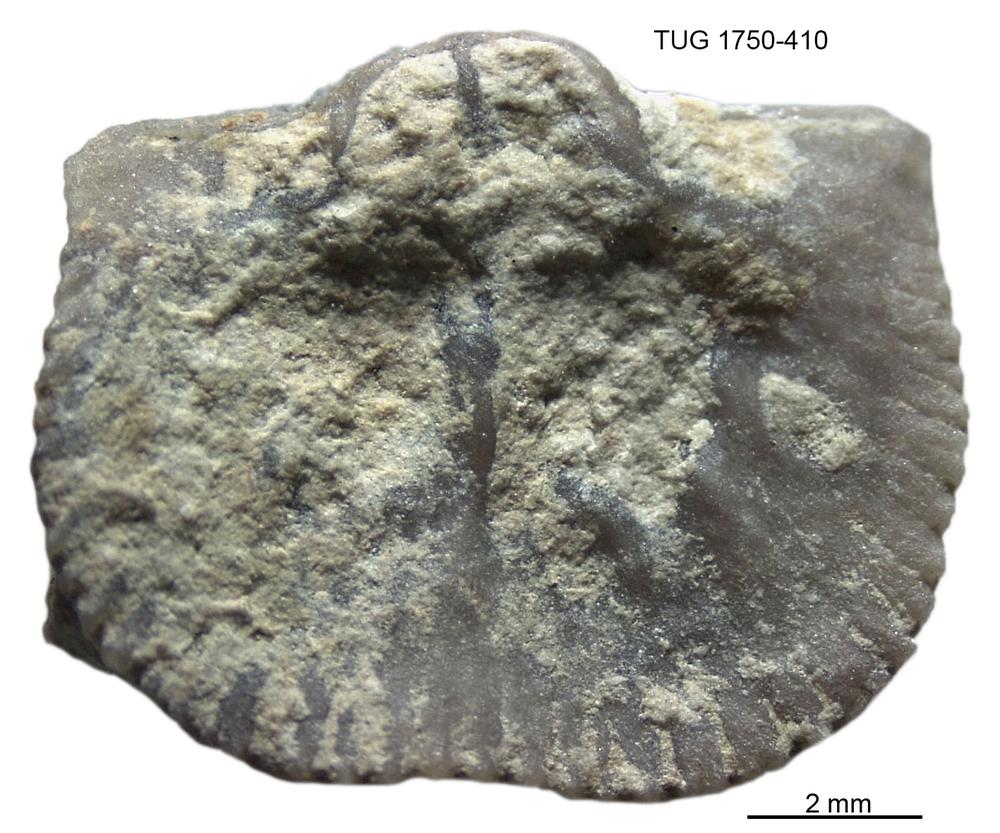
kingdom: Animalia
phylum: Brachiopoda
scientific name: Brachiopoda
